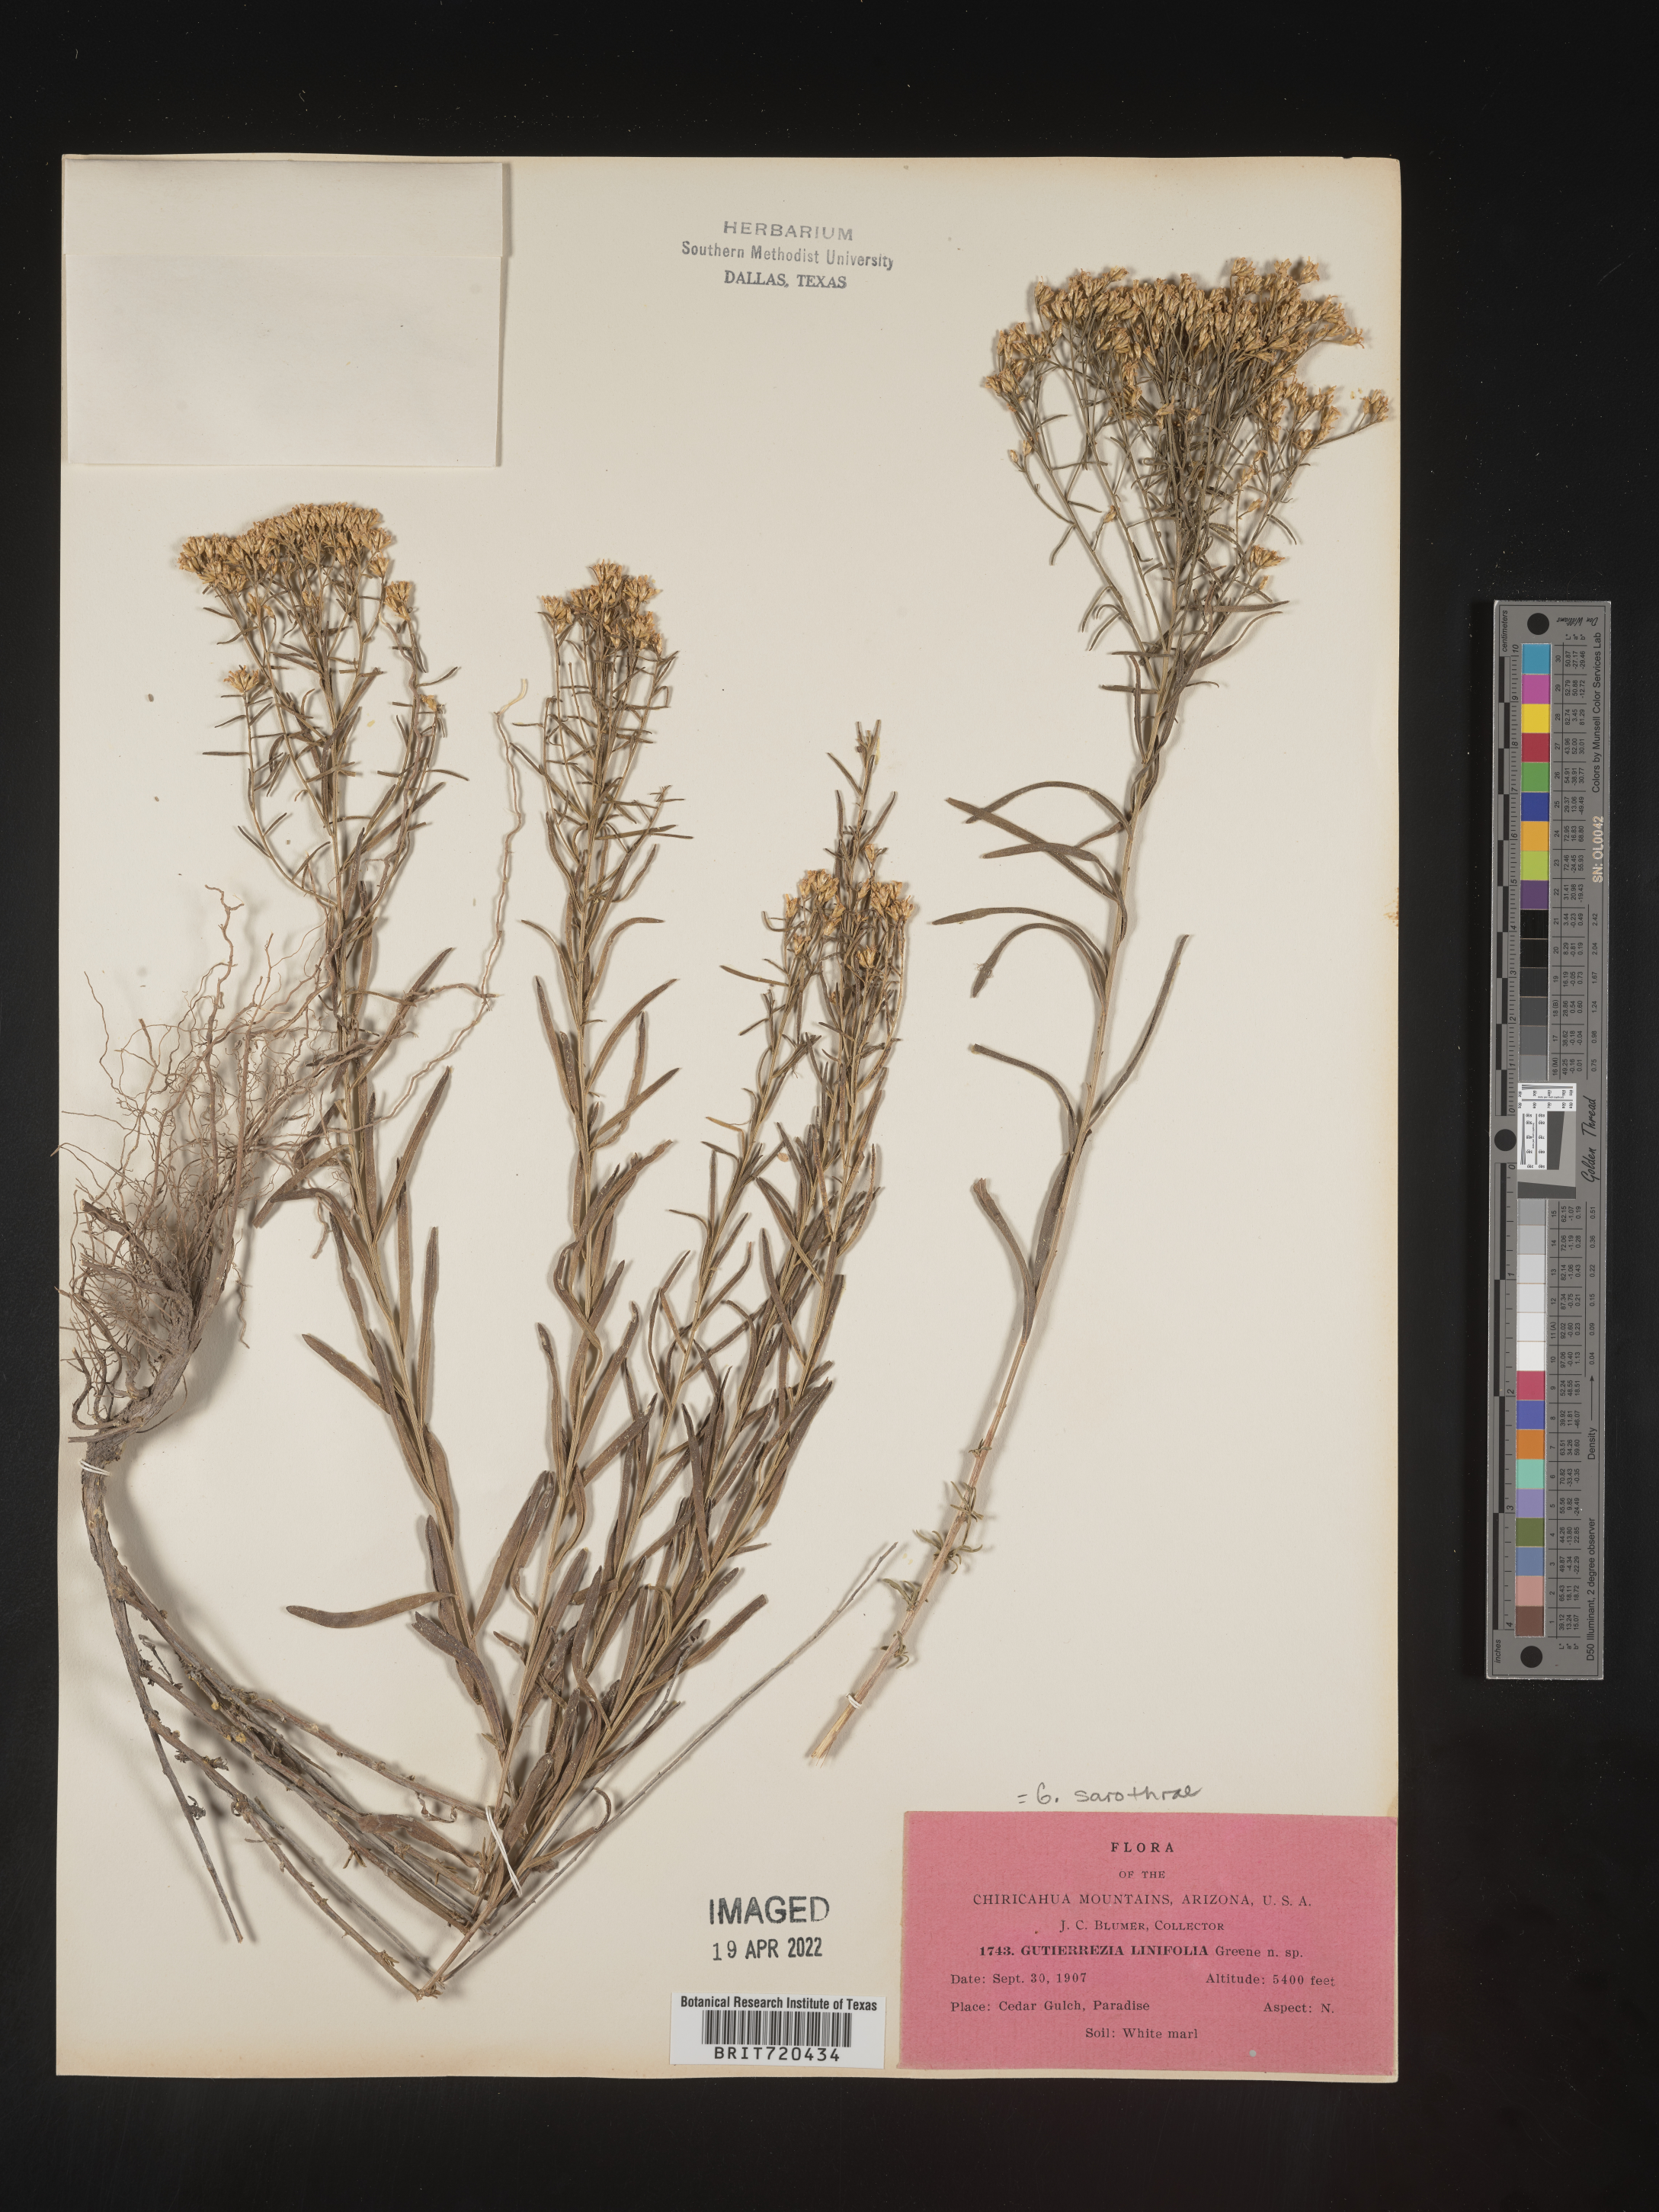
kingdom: Plantae
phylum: Tracheophyta
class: Magnoliopsida
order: Asterales
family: Asteraceae
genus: Gutierrezia
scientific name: Gutierrezia sarothrae
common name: Broom snakeweed
